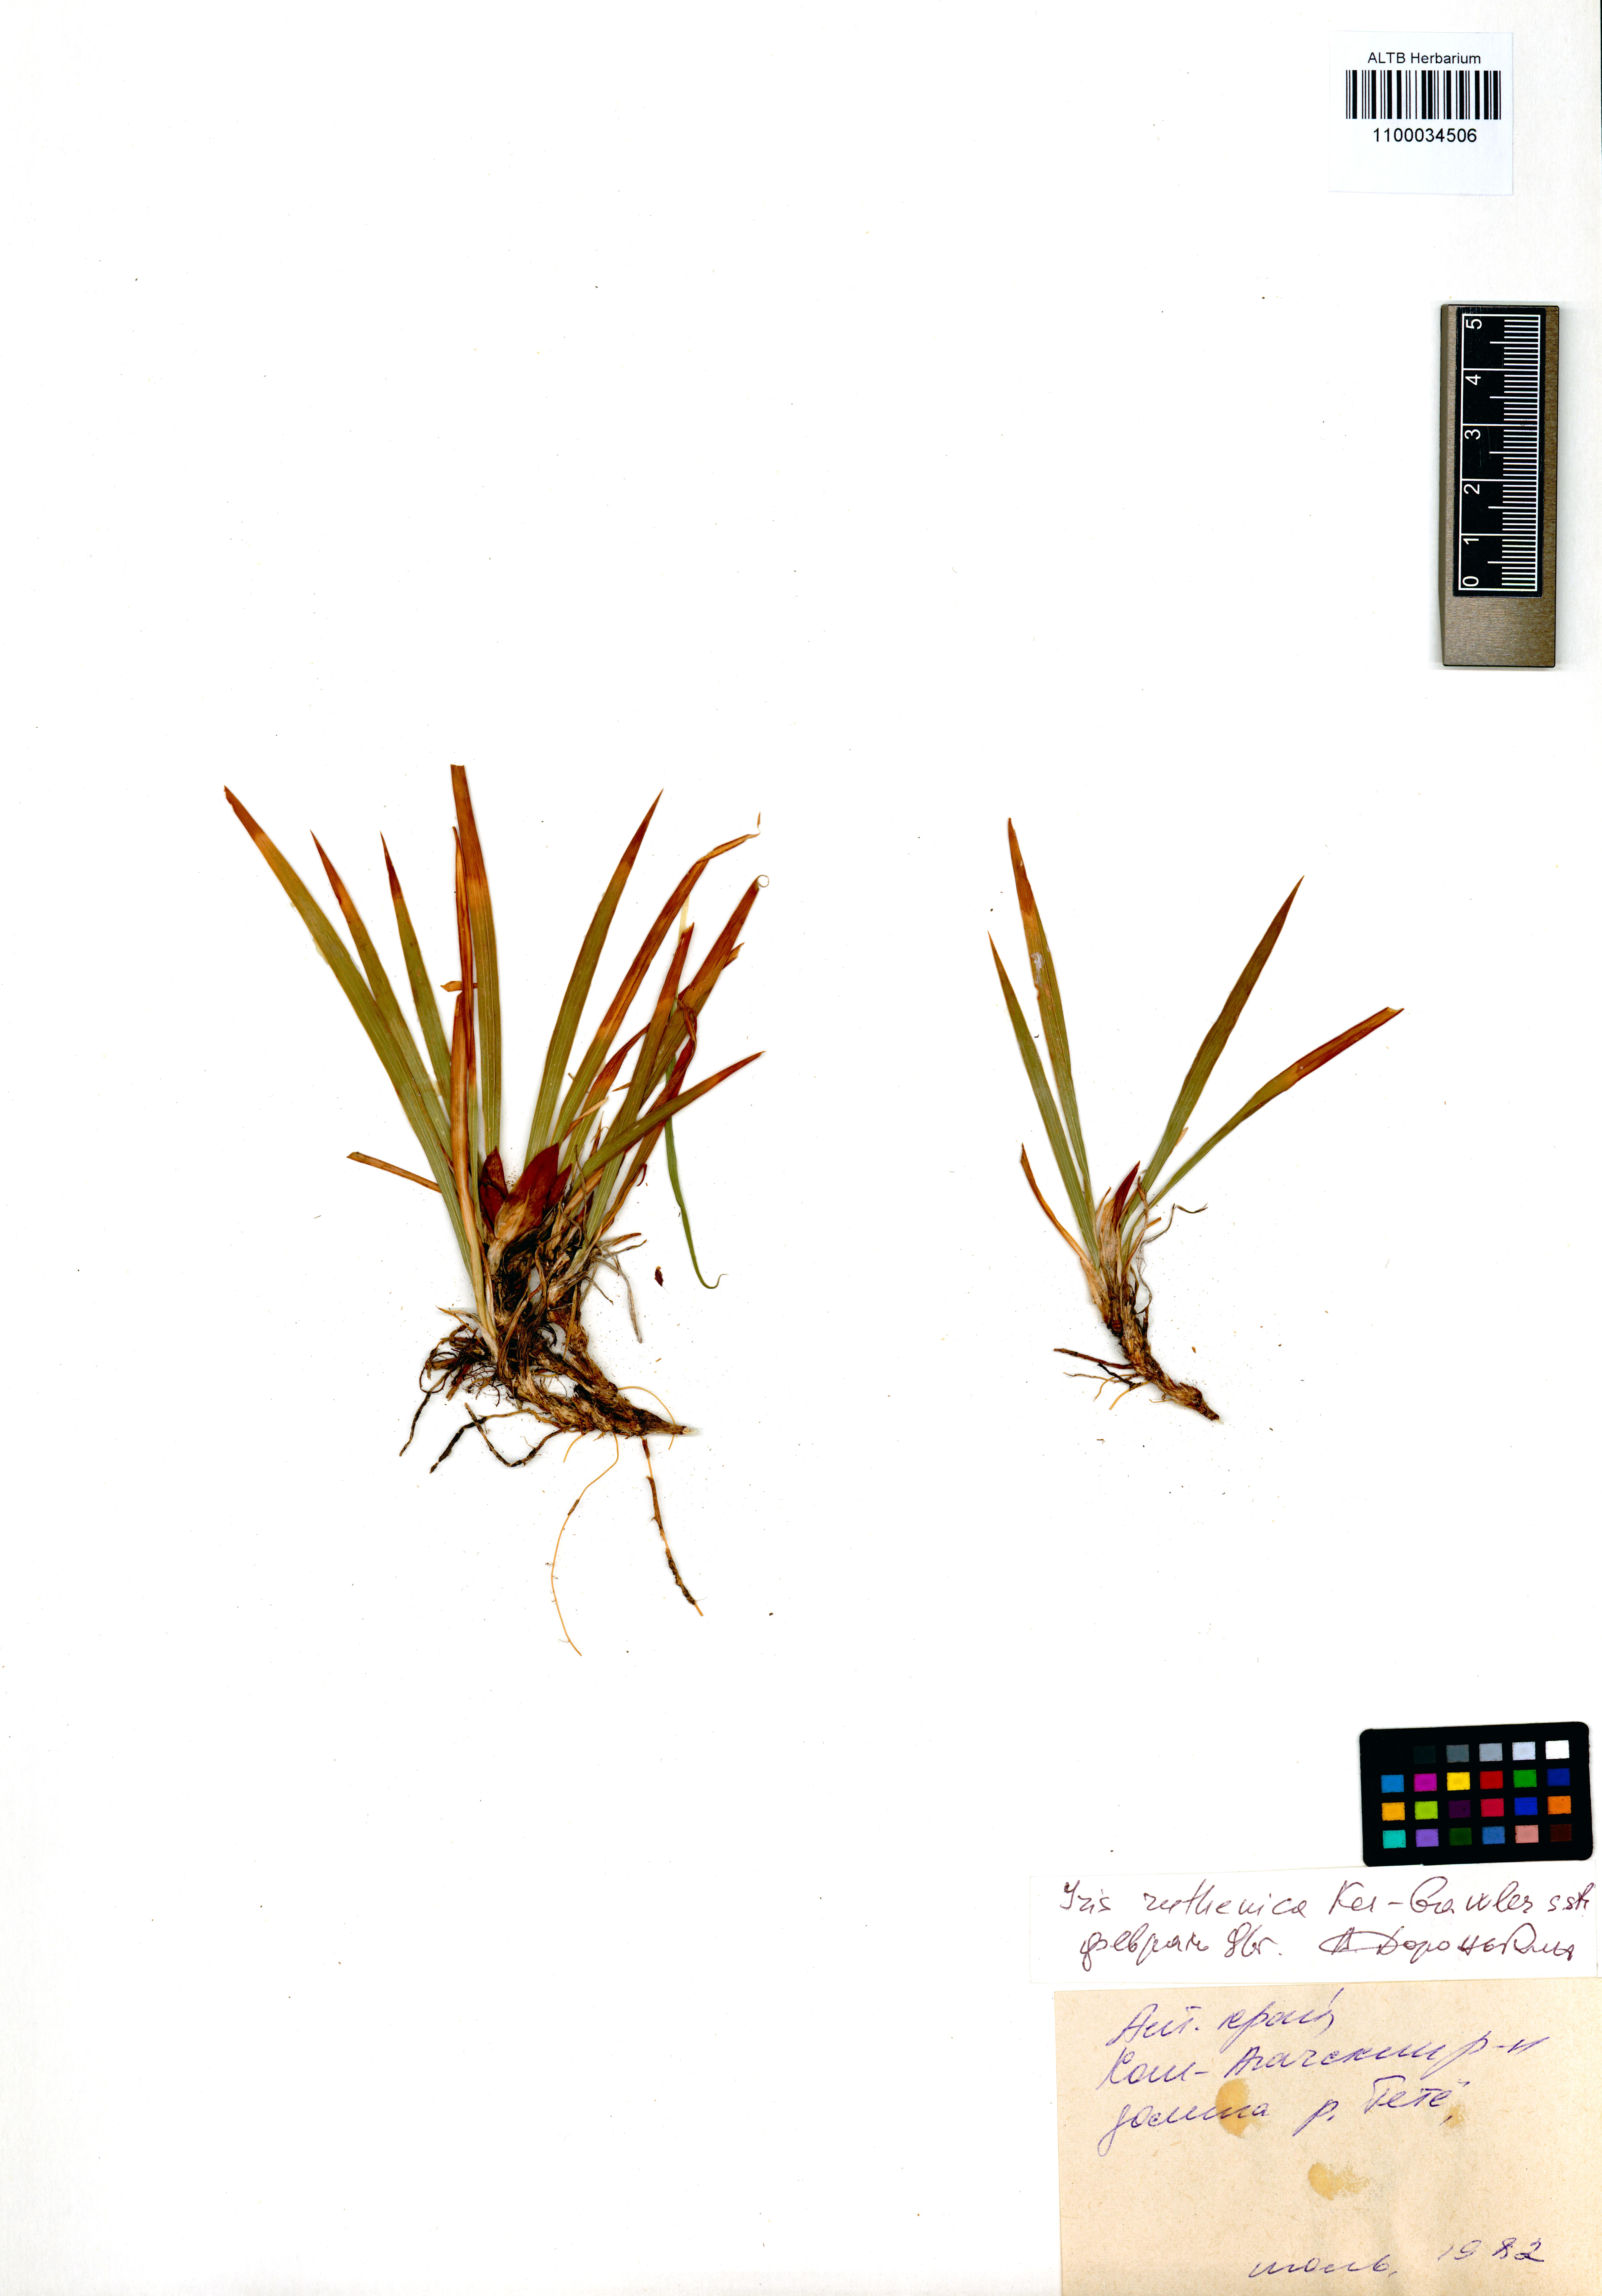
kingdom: Plantae
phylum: Tracheophyta
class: Liliopsida
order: Asparagales
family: Iridaceae
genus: Iris
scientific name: Iris ruthenica
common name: Purple-bract iris
